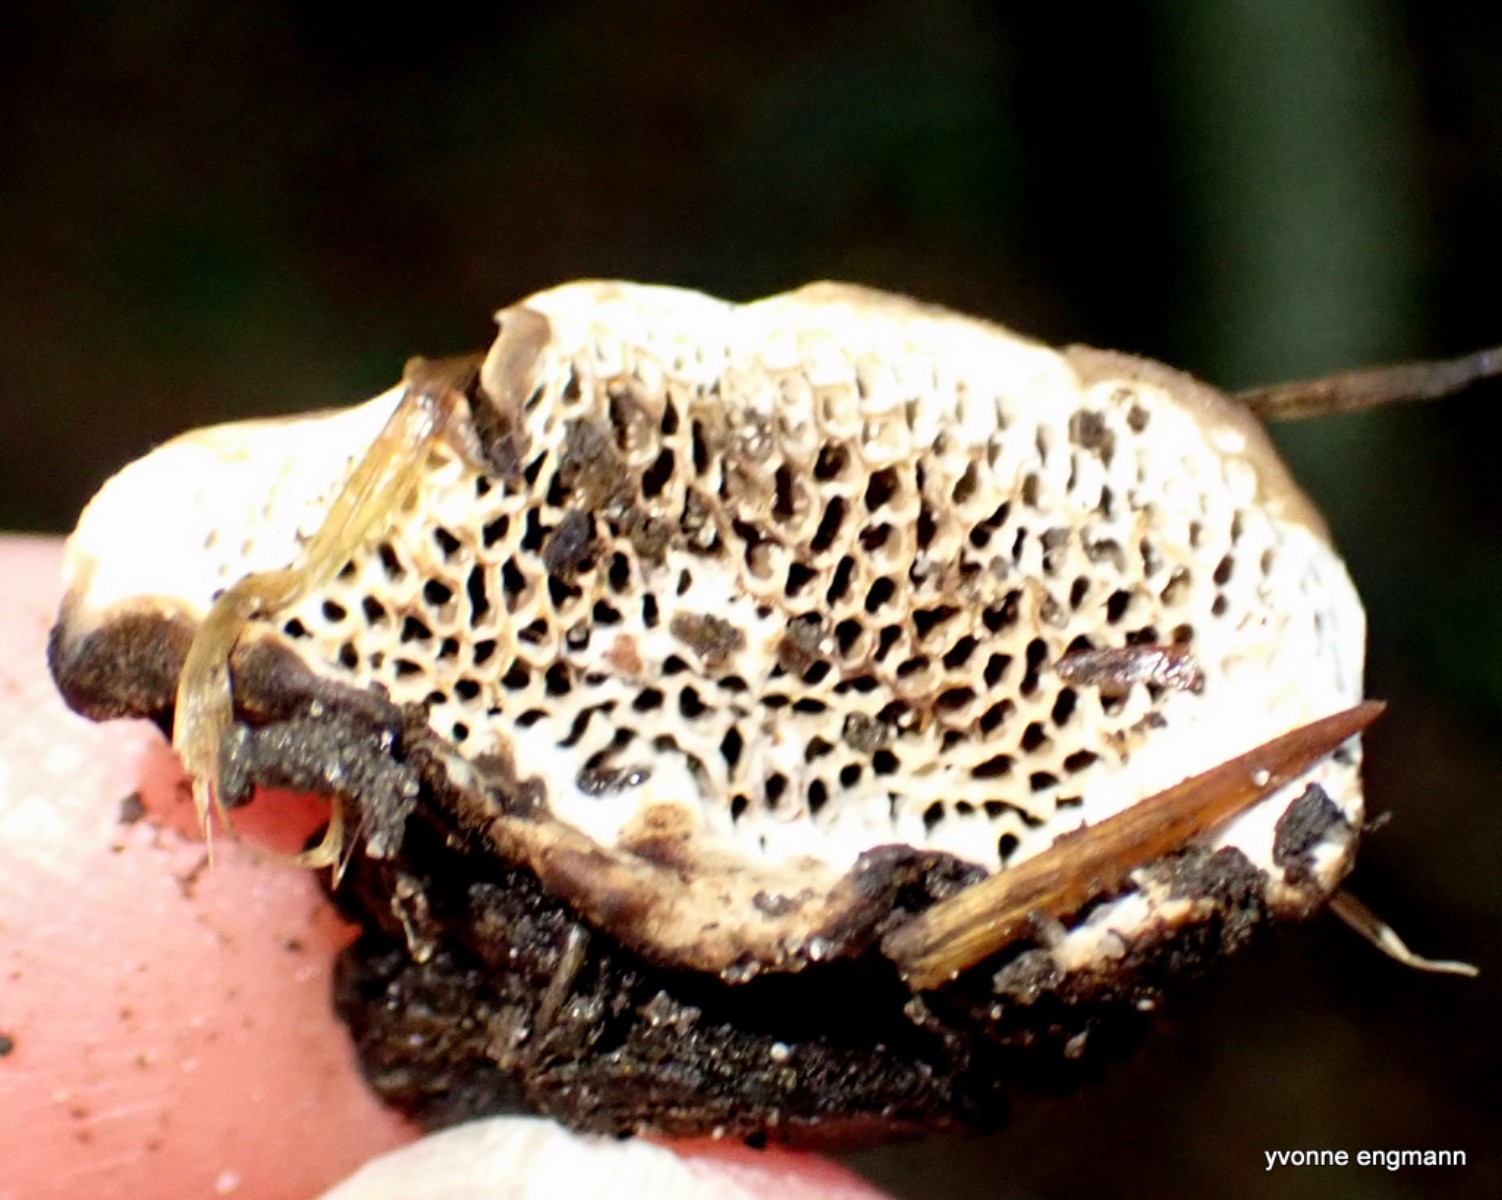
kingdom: Fungi
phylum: Basidiomycota
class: Agaricomycetes
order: Polyporales
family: Polyporaceae
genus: Podofomes
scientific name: Podofomes mollis
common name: blød begporesvamp
